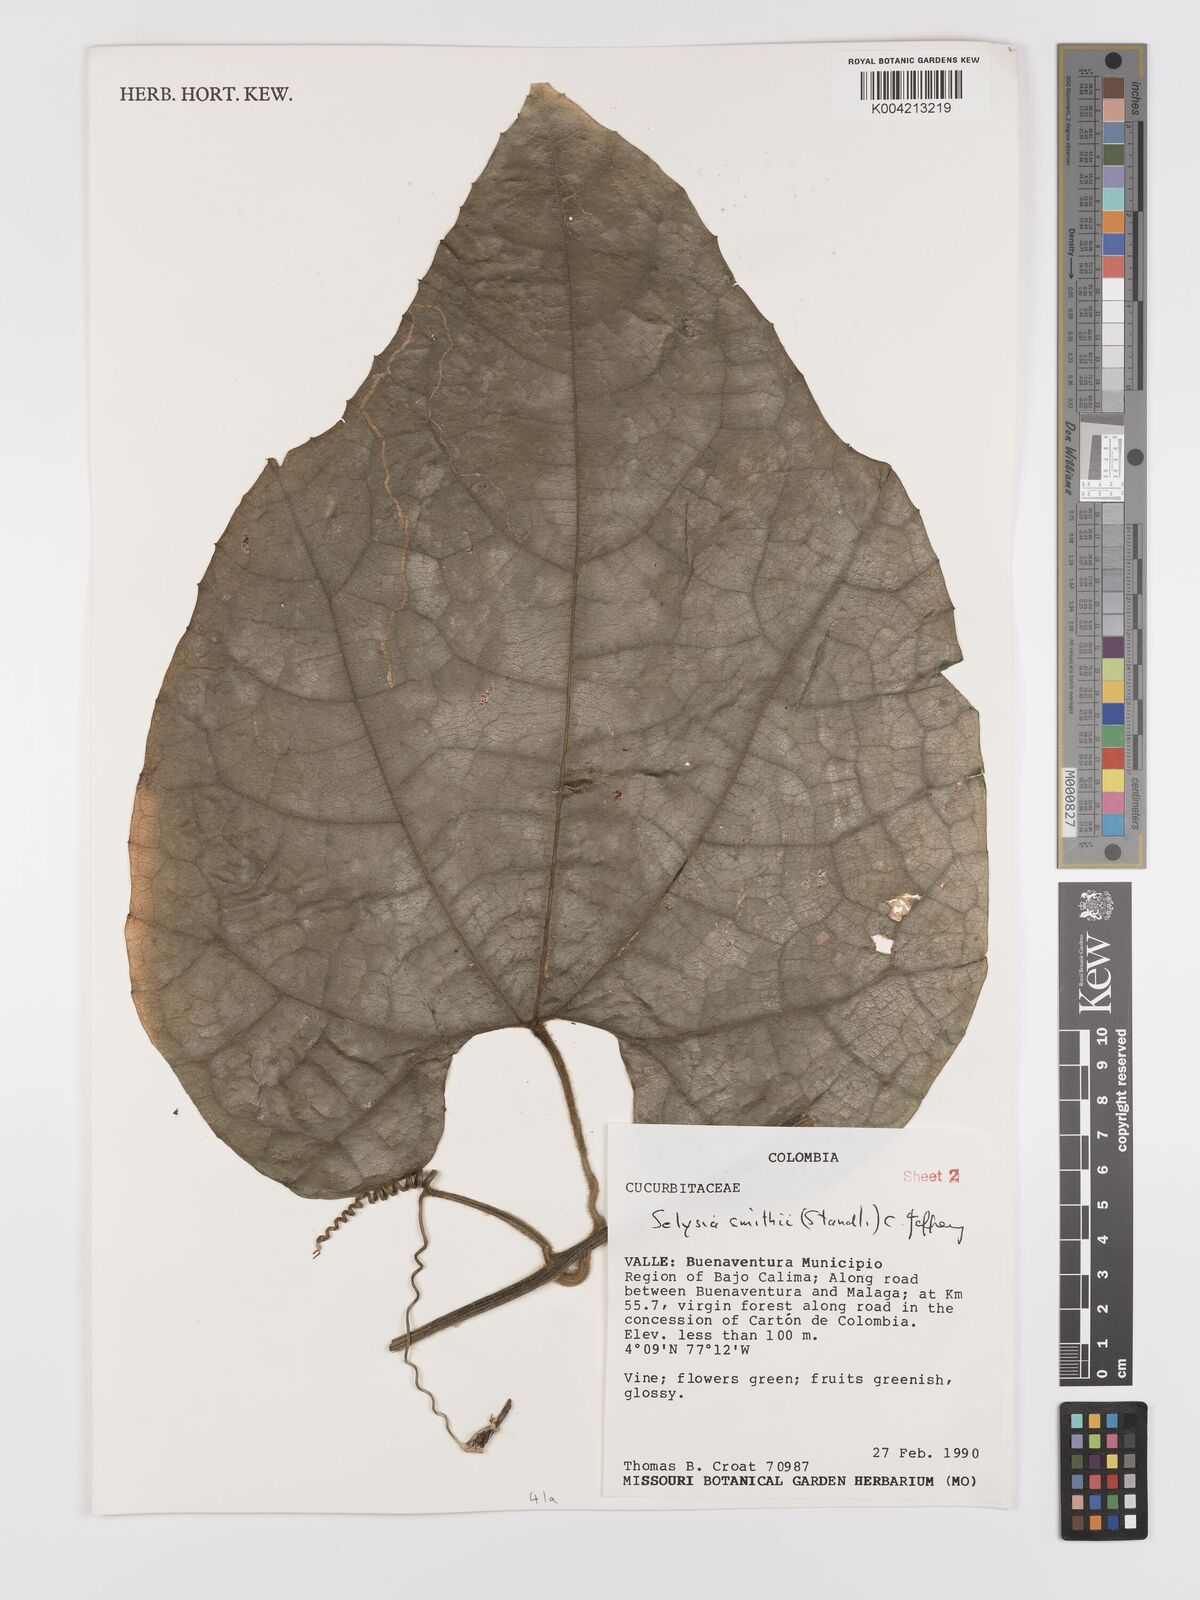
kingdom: Plantae
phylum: Tracheophyta
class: Magnoliopsida
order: Cucurbitales
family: Cucurbitaceae
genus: Cayaponia
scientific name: Cayaponia smithii
